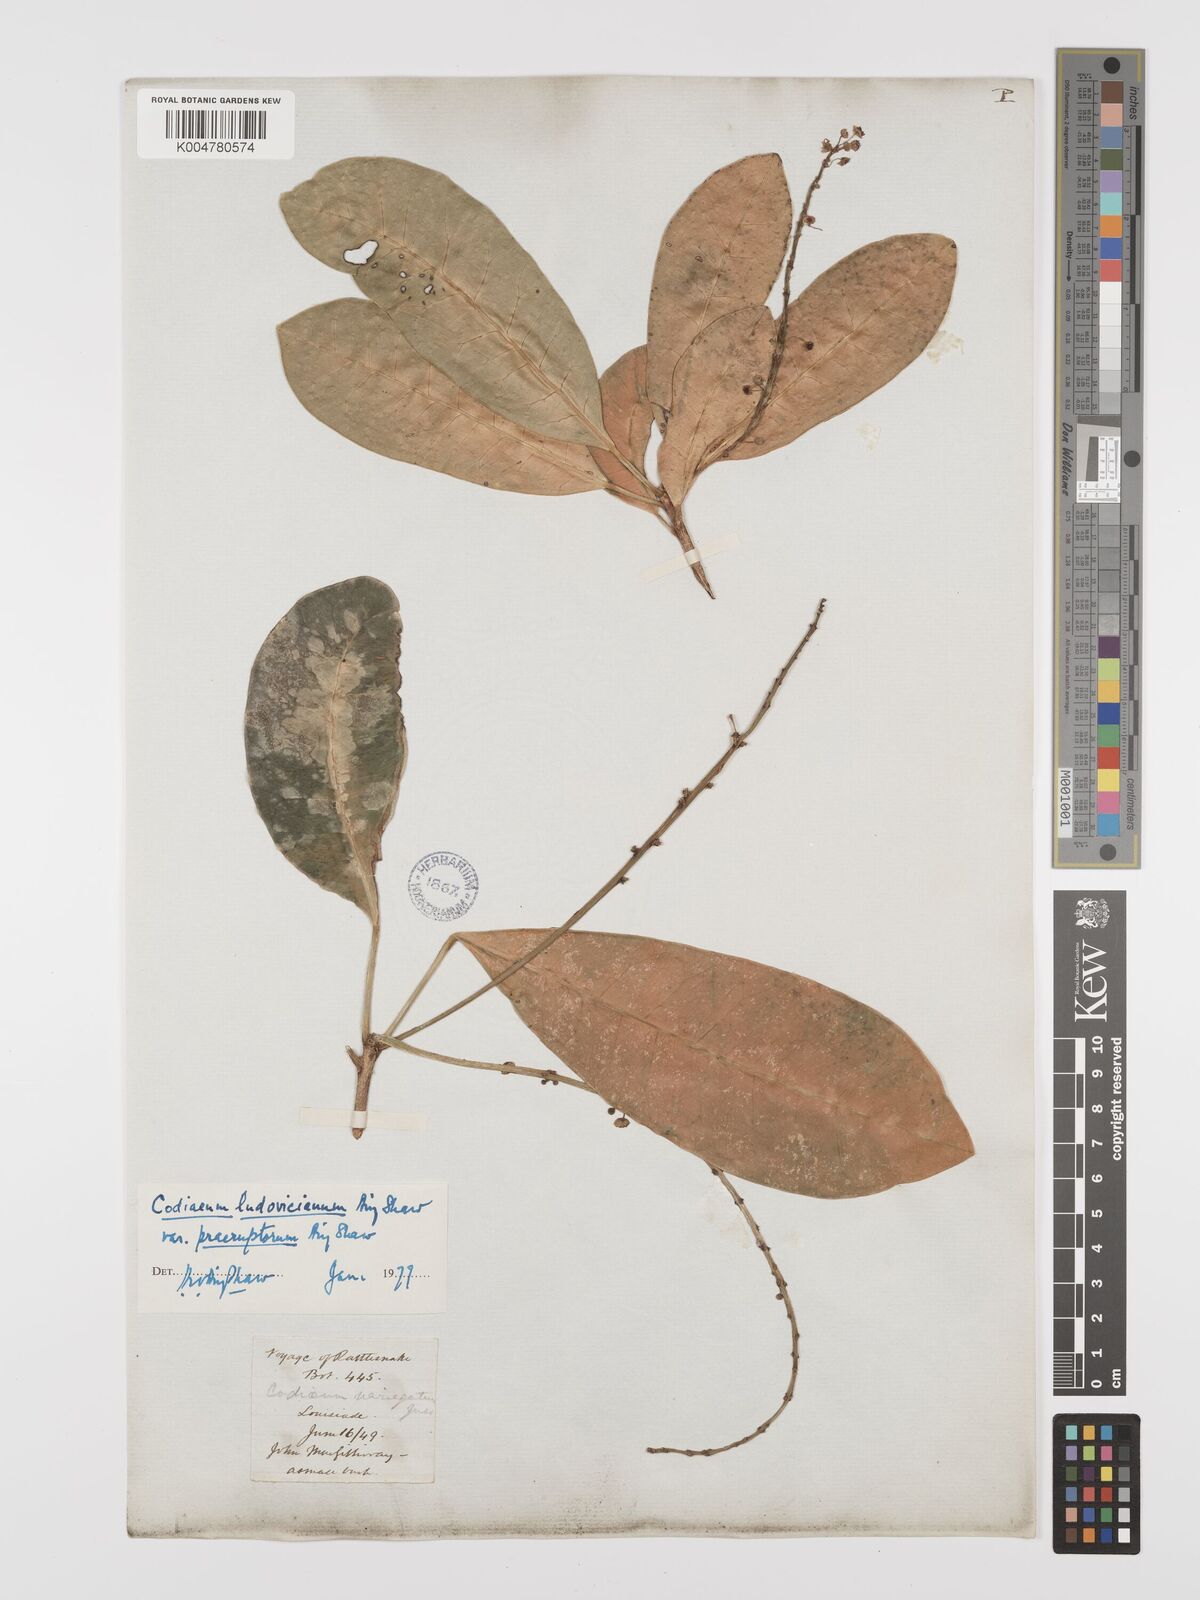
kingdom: Plantae
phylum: Tracheophyta
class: Magnoliopsida
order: Malpighiales
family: Euphorbiaceae
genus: Codiaeum
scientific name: Codiaeum ludovicianum
